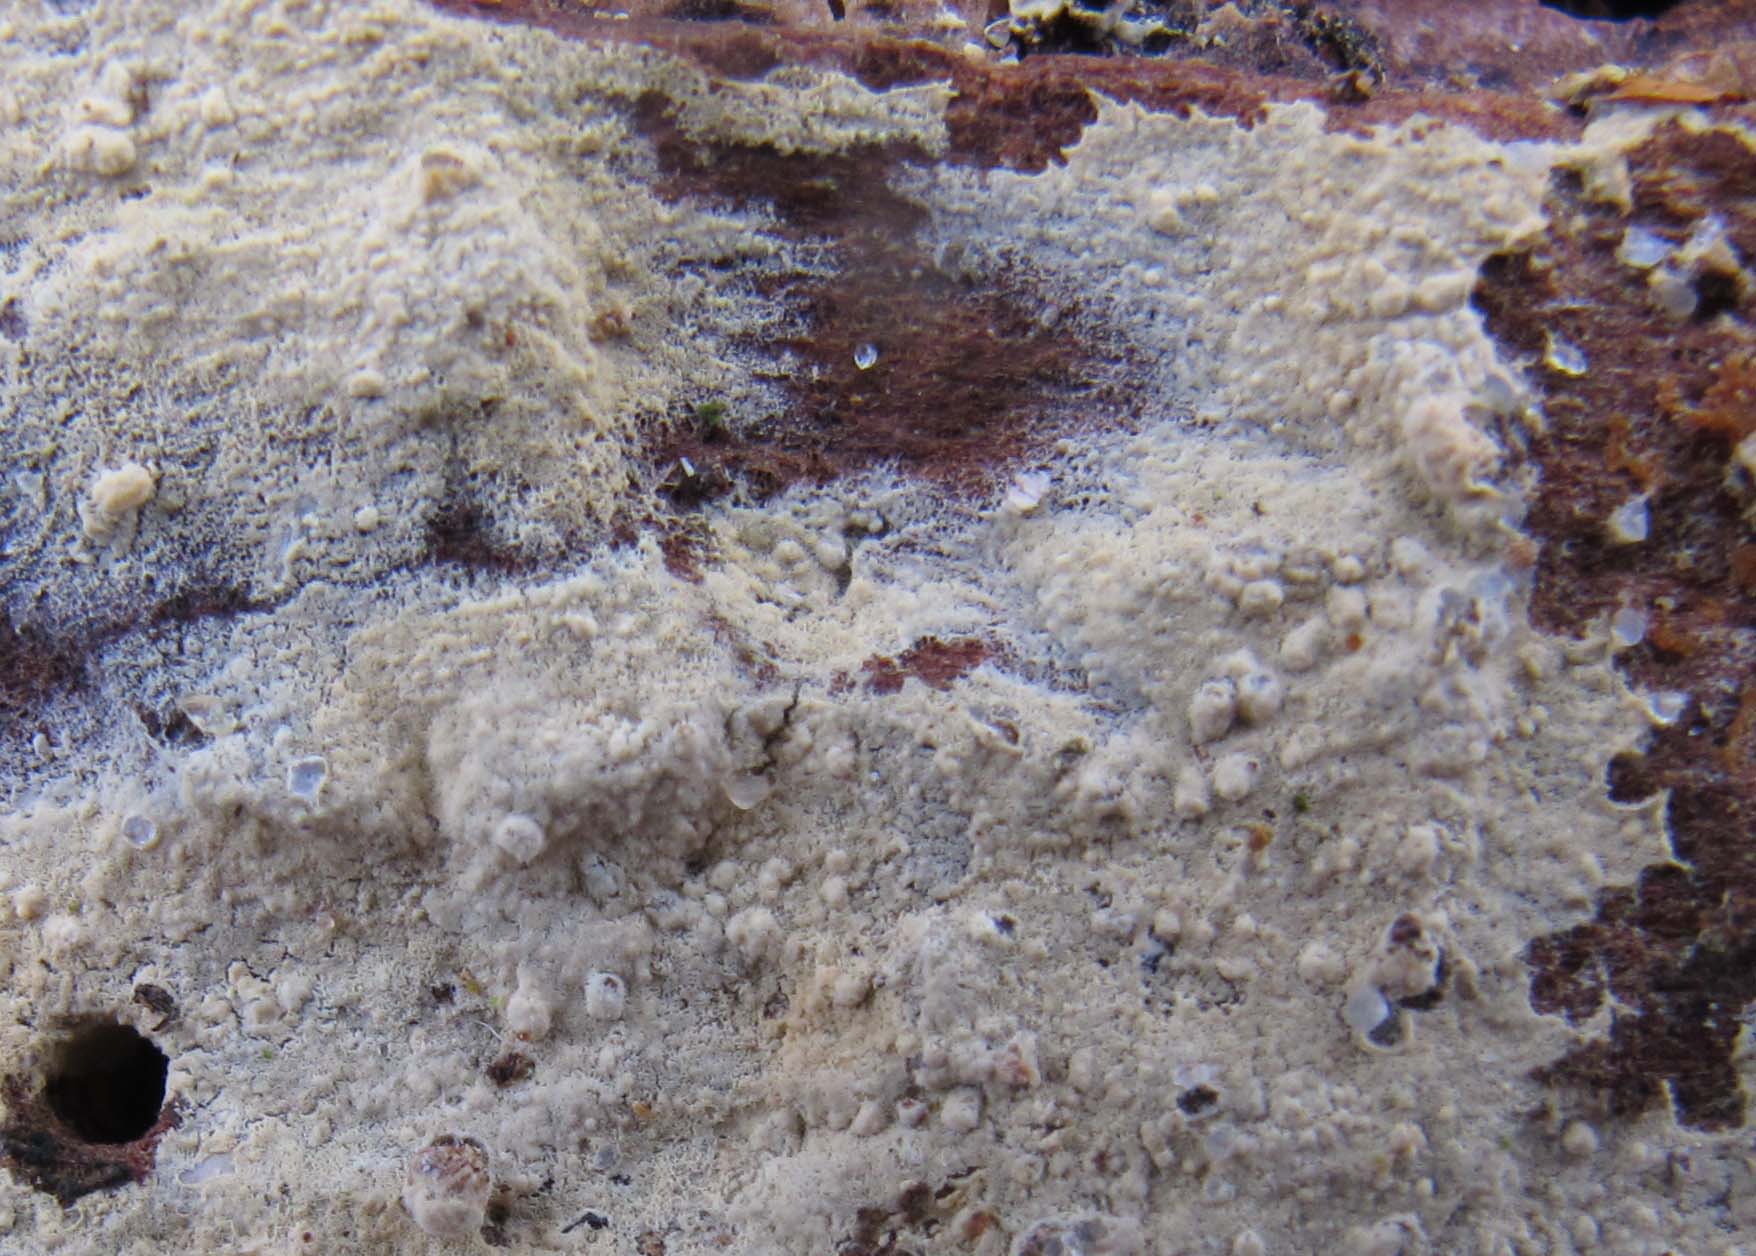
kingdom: Fungi
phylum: Basidiomycota
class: Agaricomycetes
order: Hymenochaetales
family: Hyphodontiaceae
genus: Hyphodontia
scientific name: Hyphodontia alutaria
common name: flaskerenser-nålehinde
